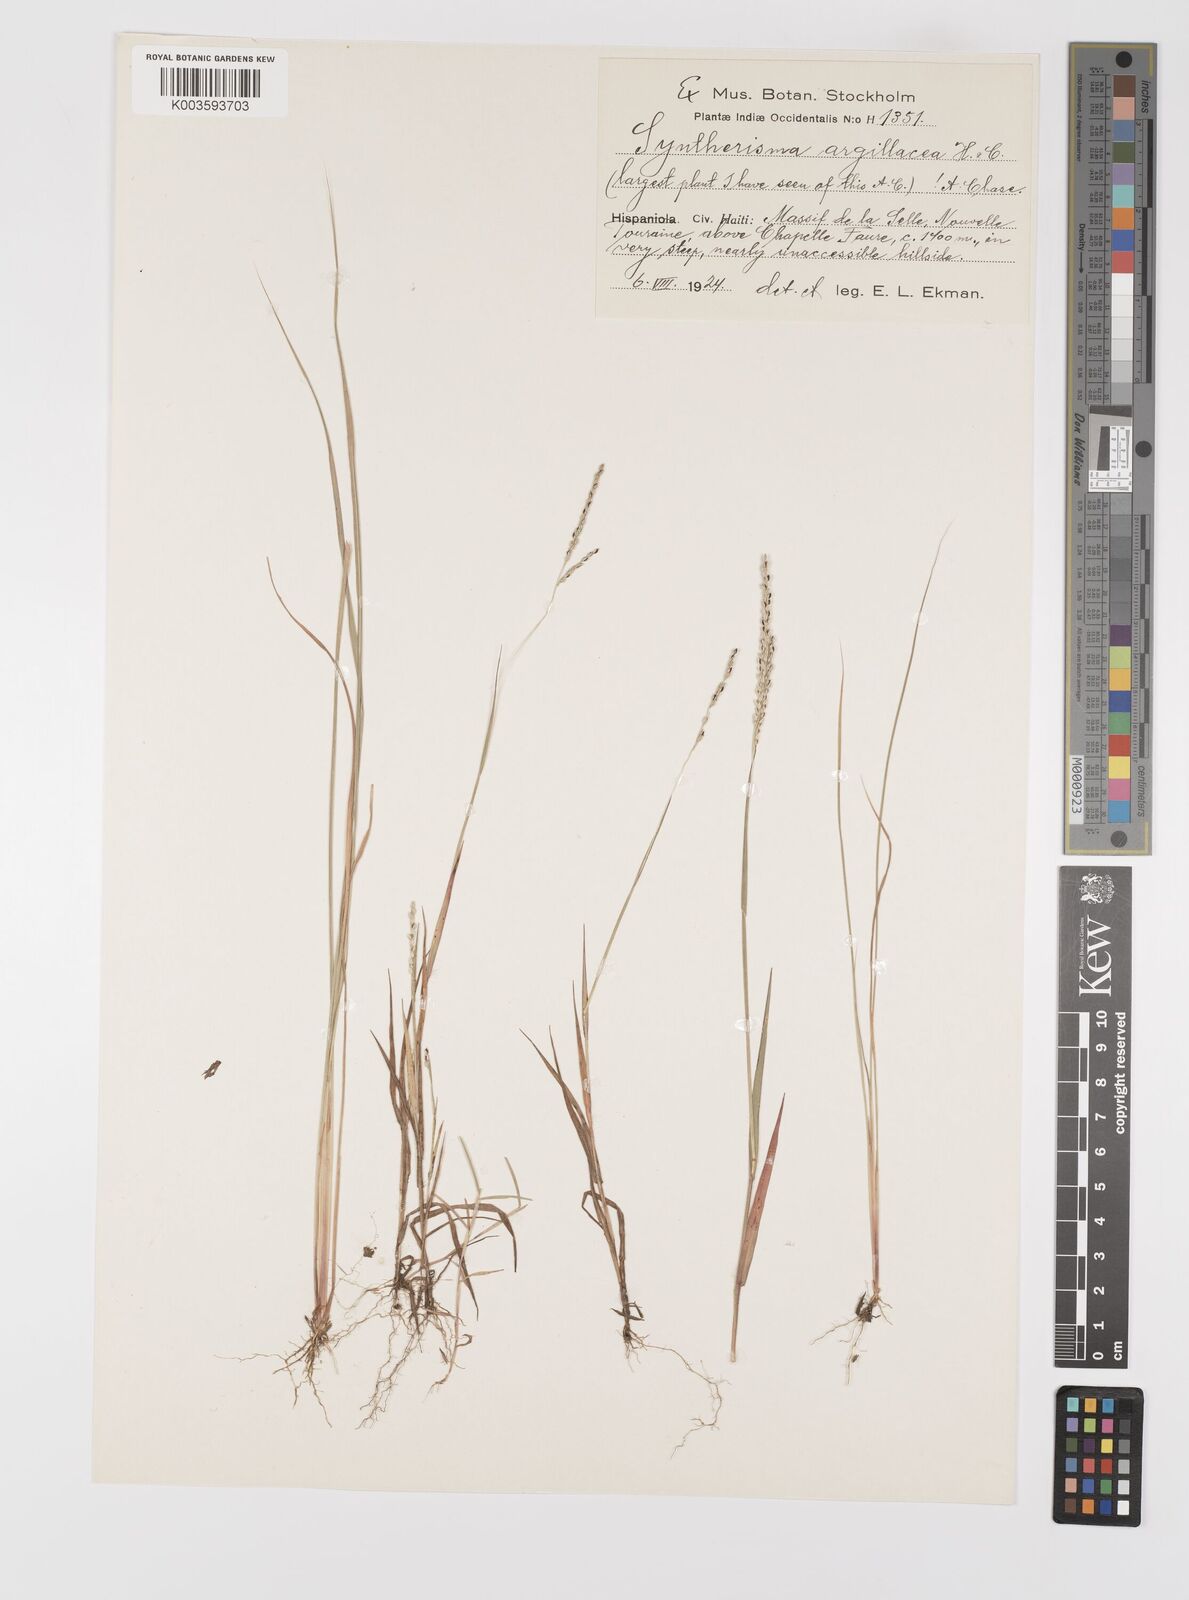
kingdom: Plantae
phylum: Tracheophyta
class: Liliopsida
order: Poales
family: Poaceae
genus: Digitaria
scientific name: Digitaria argillacea
